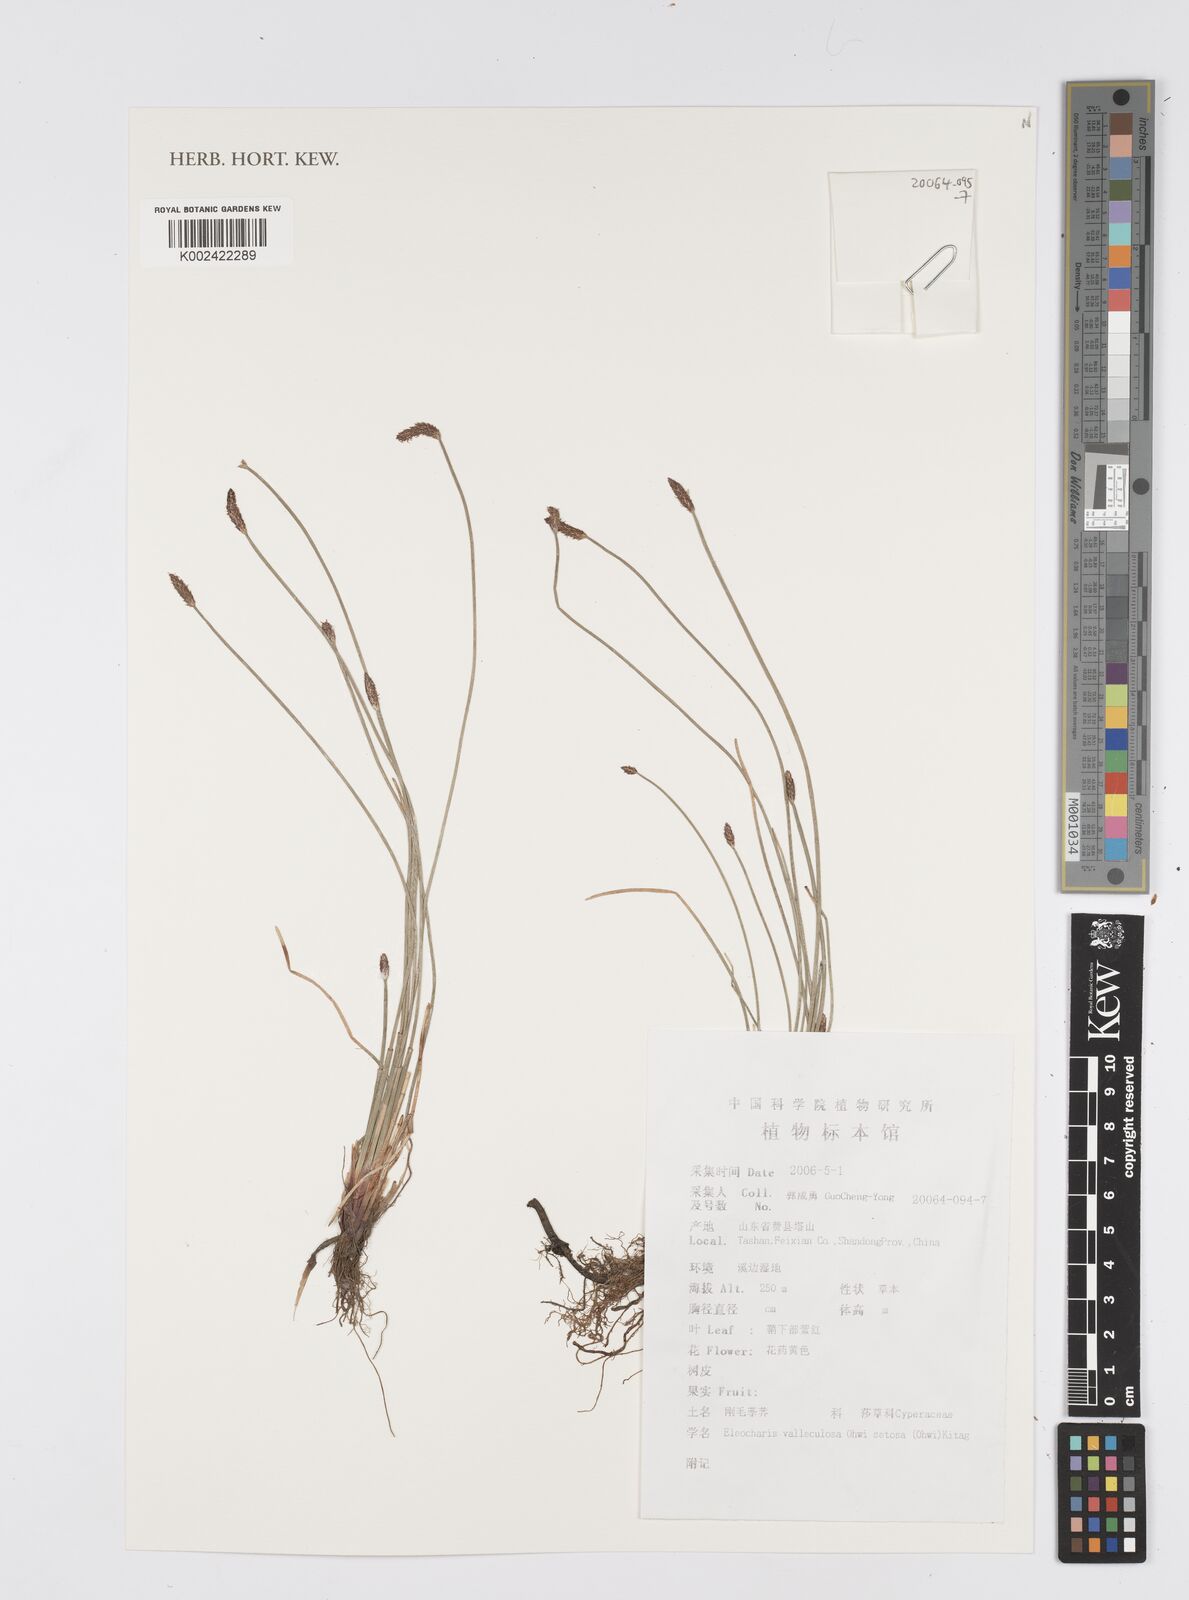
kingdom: Plantae
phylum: Tracheophyta
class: Liliopsida
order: Poales
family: Cyperaceae
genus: Eleocharis
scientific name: Eleocharis valleculosa
